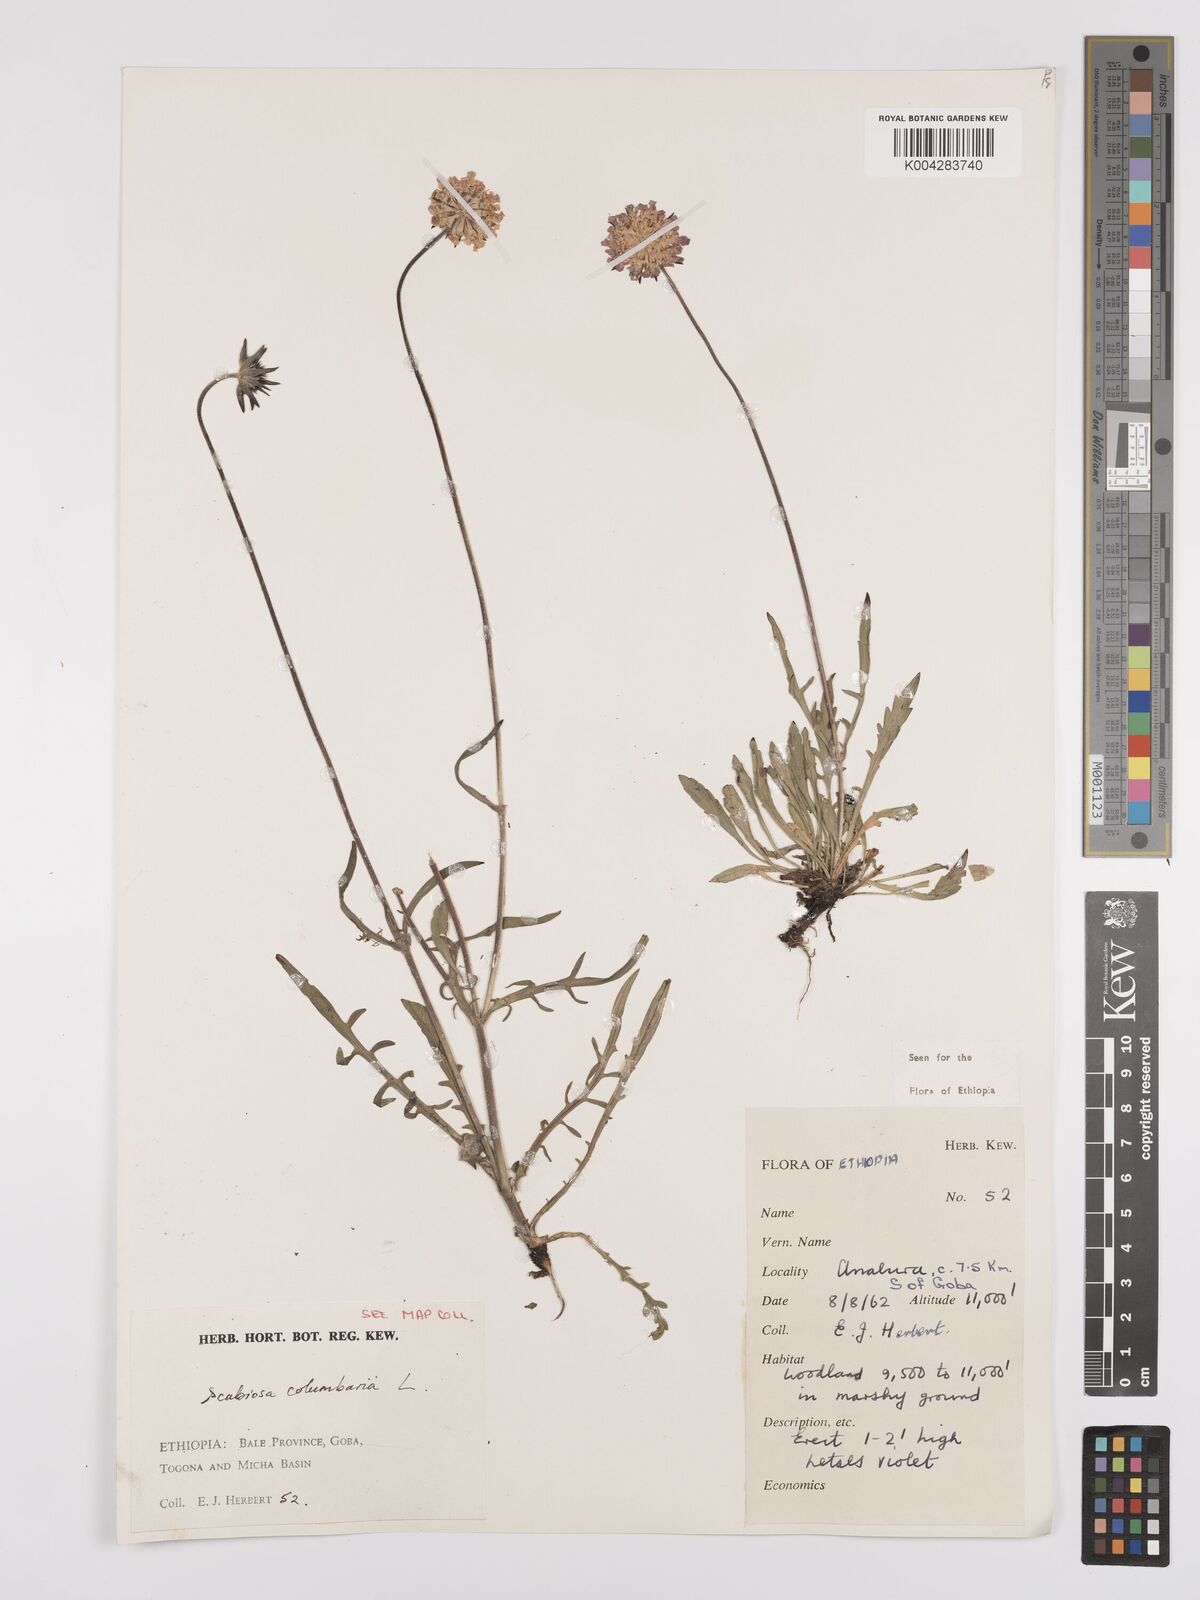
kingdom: Plantae
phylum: Tracheophyta
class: Magnoliopsida
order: Dipsacales
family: Caprifoliaceae
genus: Scabiosa
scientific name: Scabiosa columbaria
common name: Small scabious
